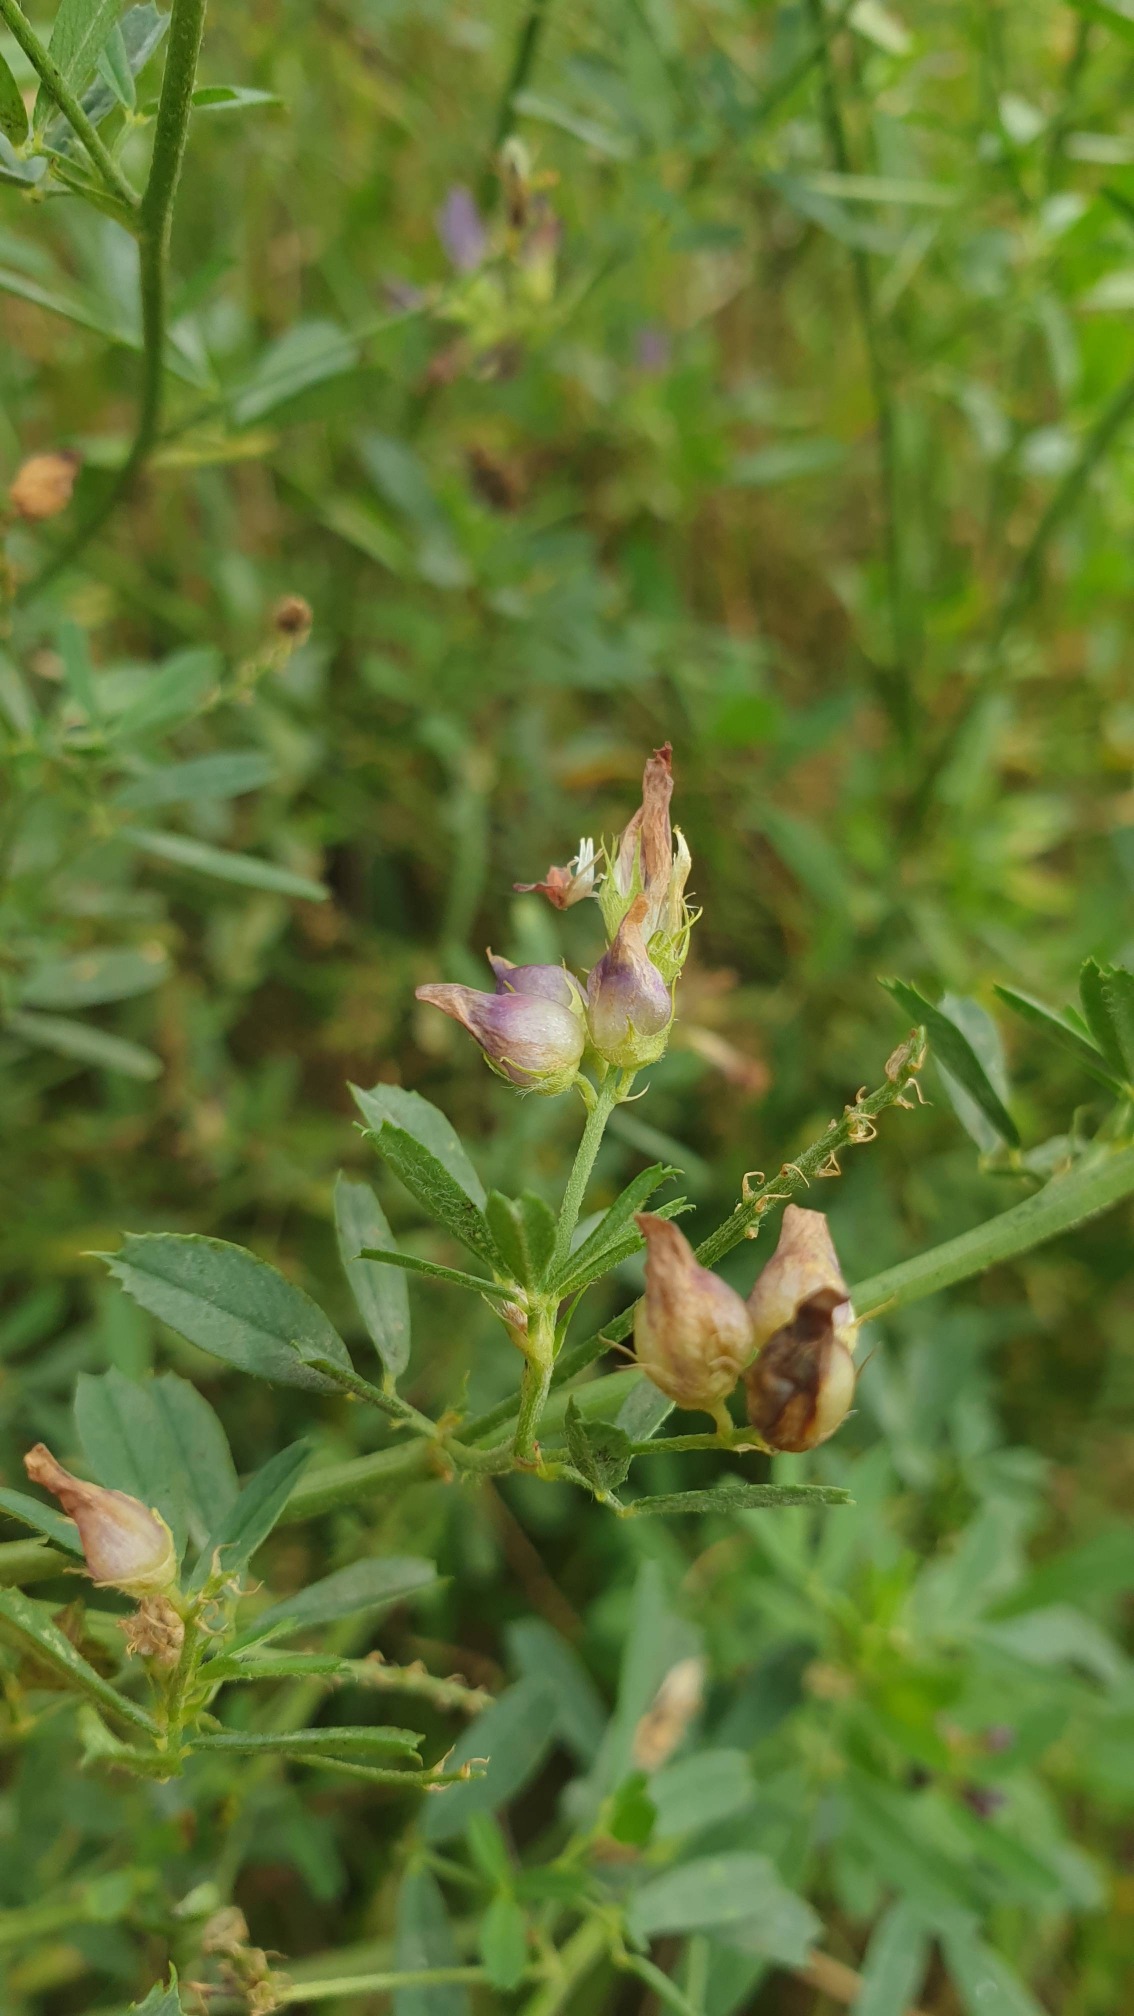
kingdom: Animalia
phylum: Arthropoda
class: Insecta
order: Diptera
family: Cecidomyiidae
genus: Contarinia
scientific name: Contarinia medicaginis
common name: Lucerneblomstgalmyg
